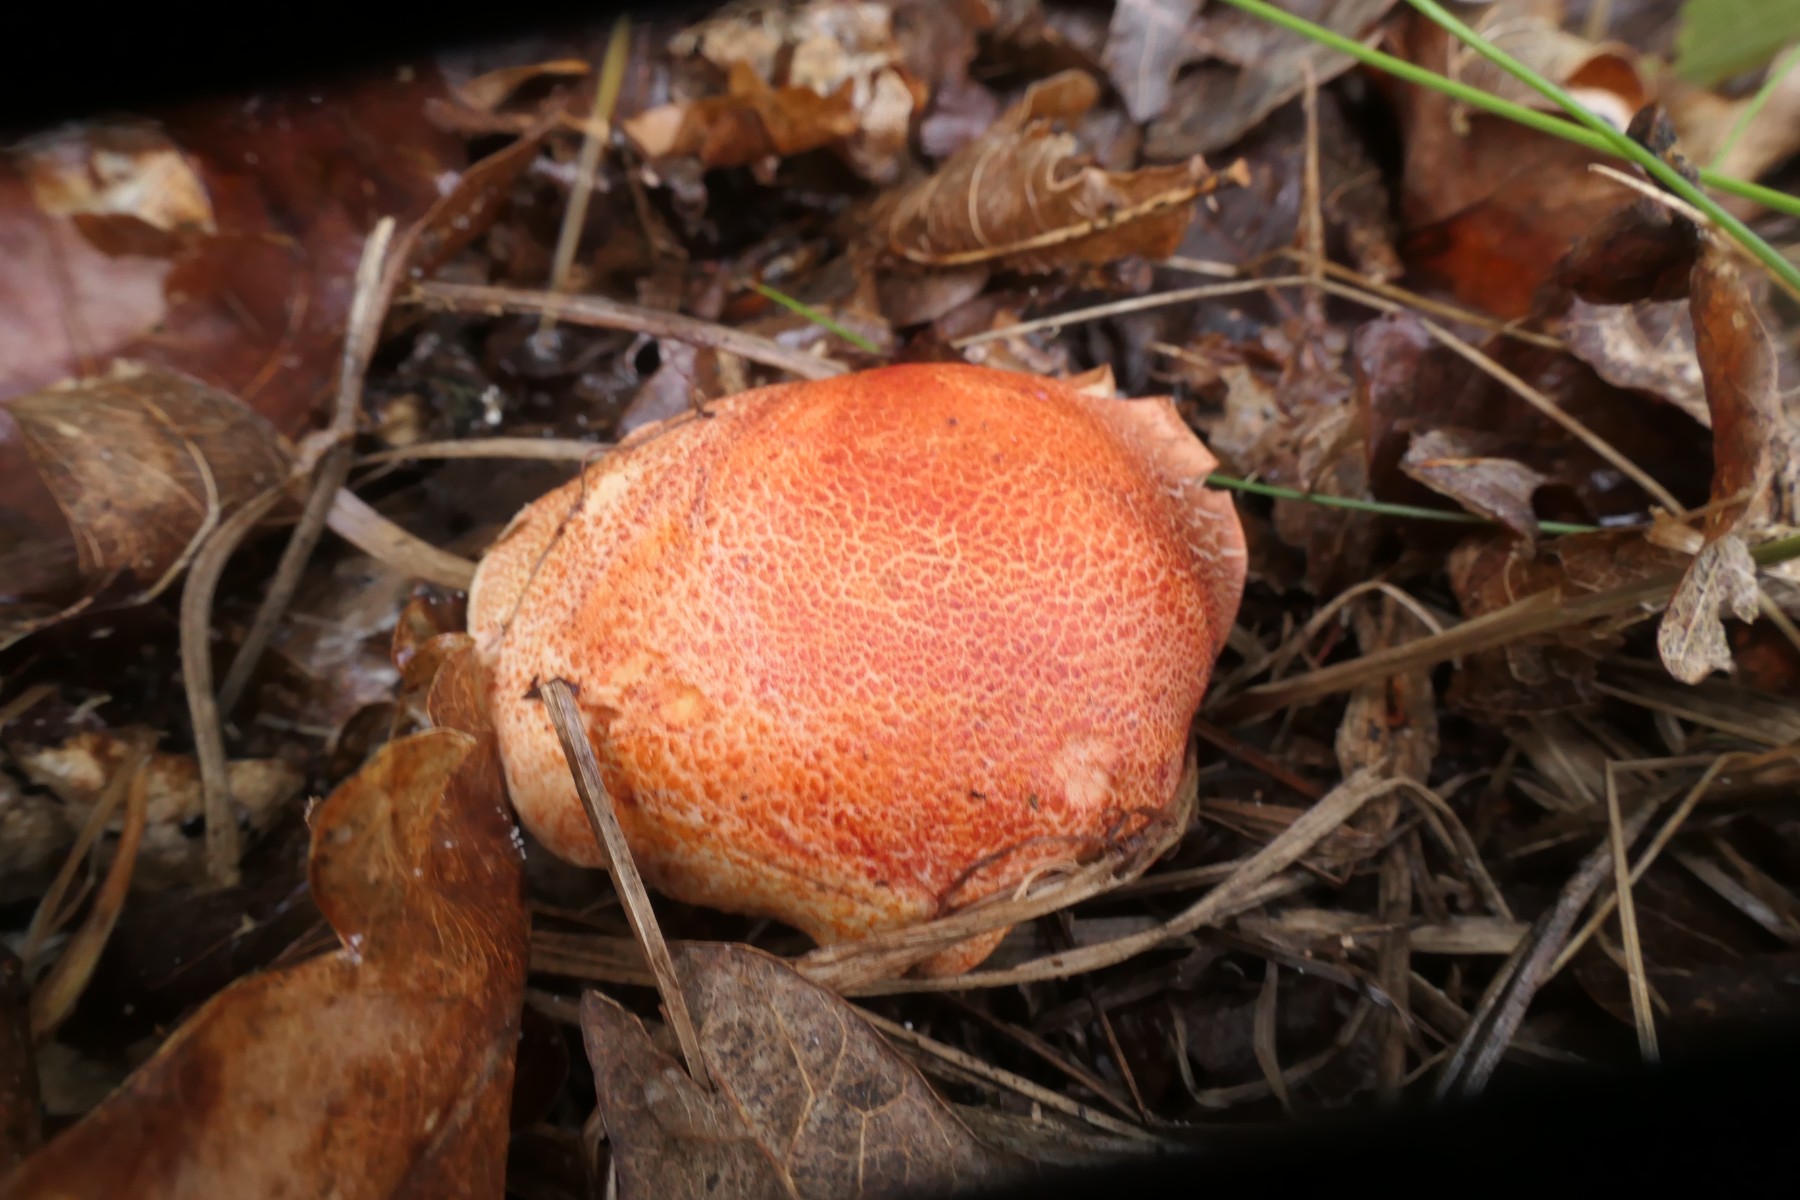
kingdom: Fungi
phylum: Basidiomycota
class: Agaricomycetes
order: Agaricales
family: Cortinariaceae
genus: Cortinarius
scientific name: Cortinarius bolaris
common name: cinnoberskællet slørhat
